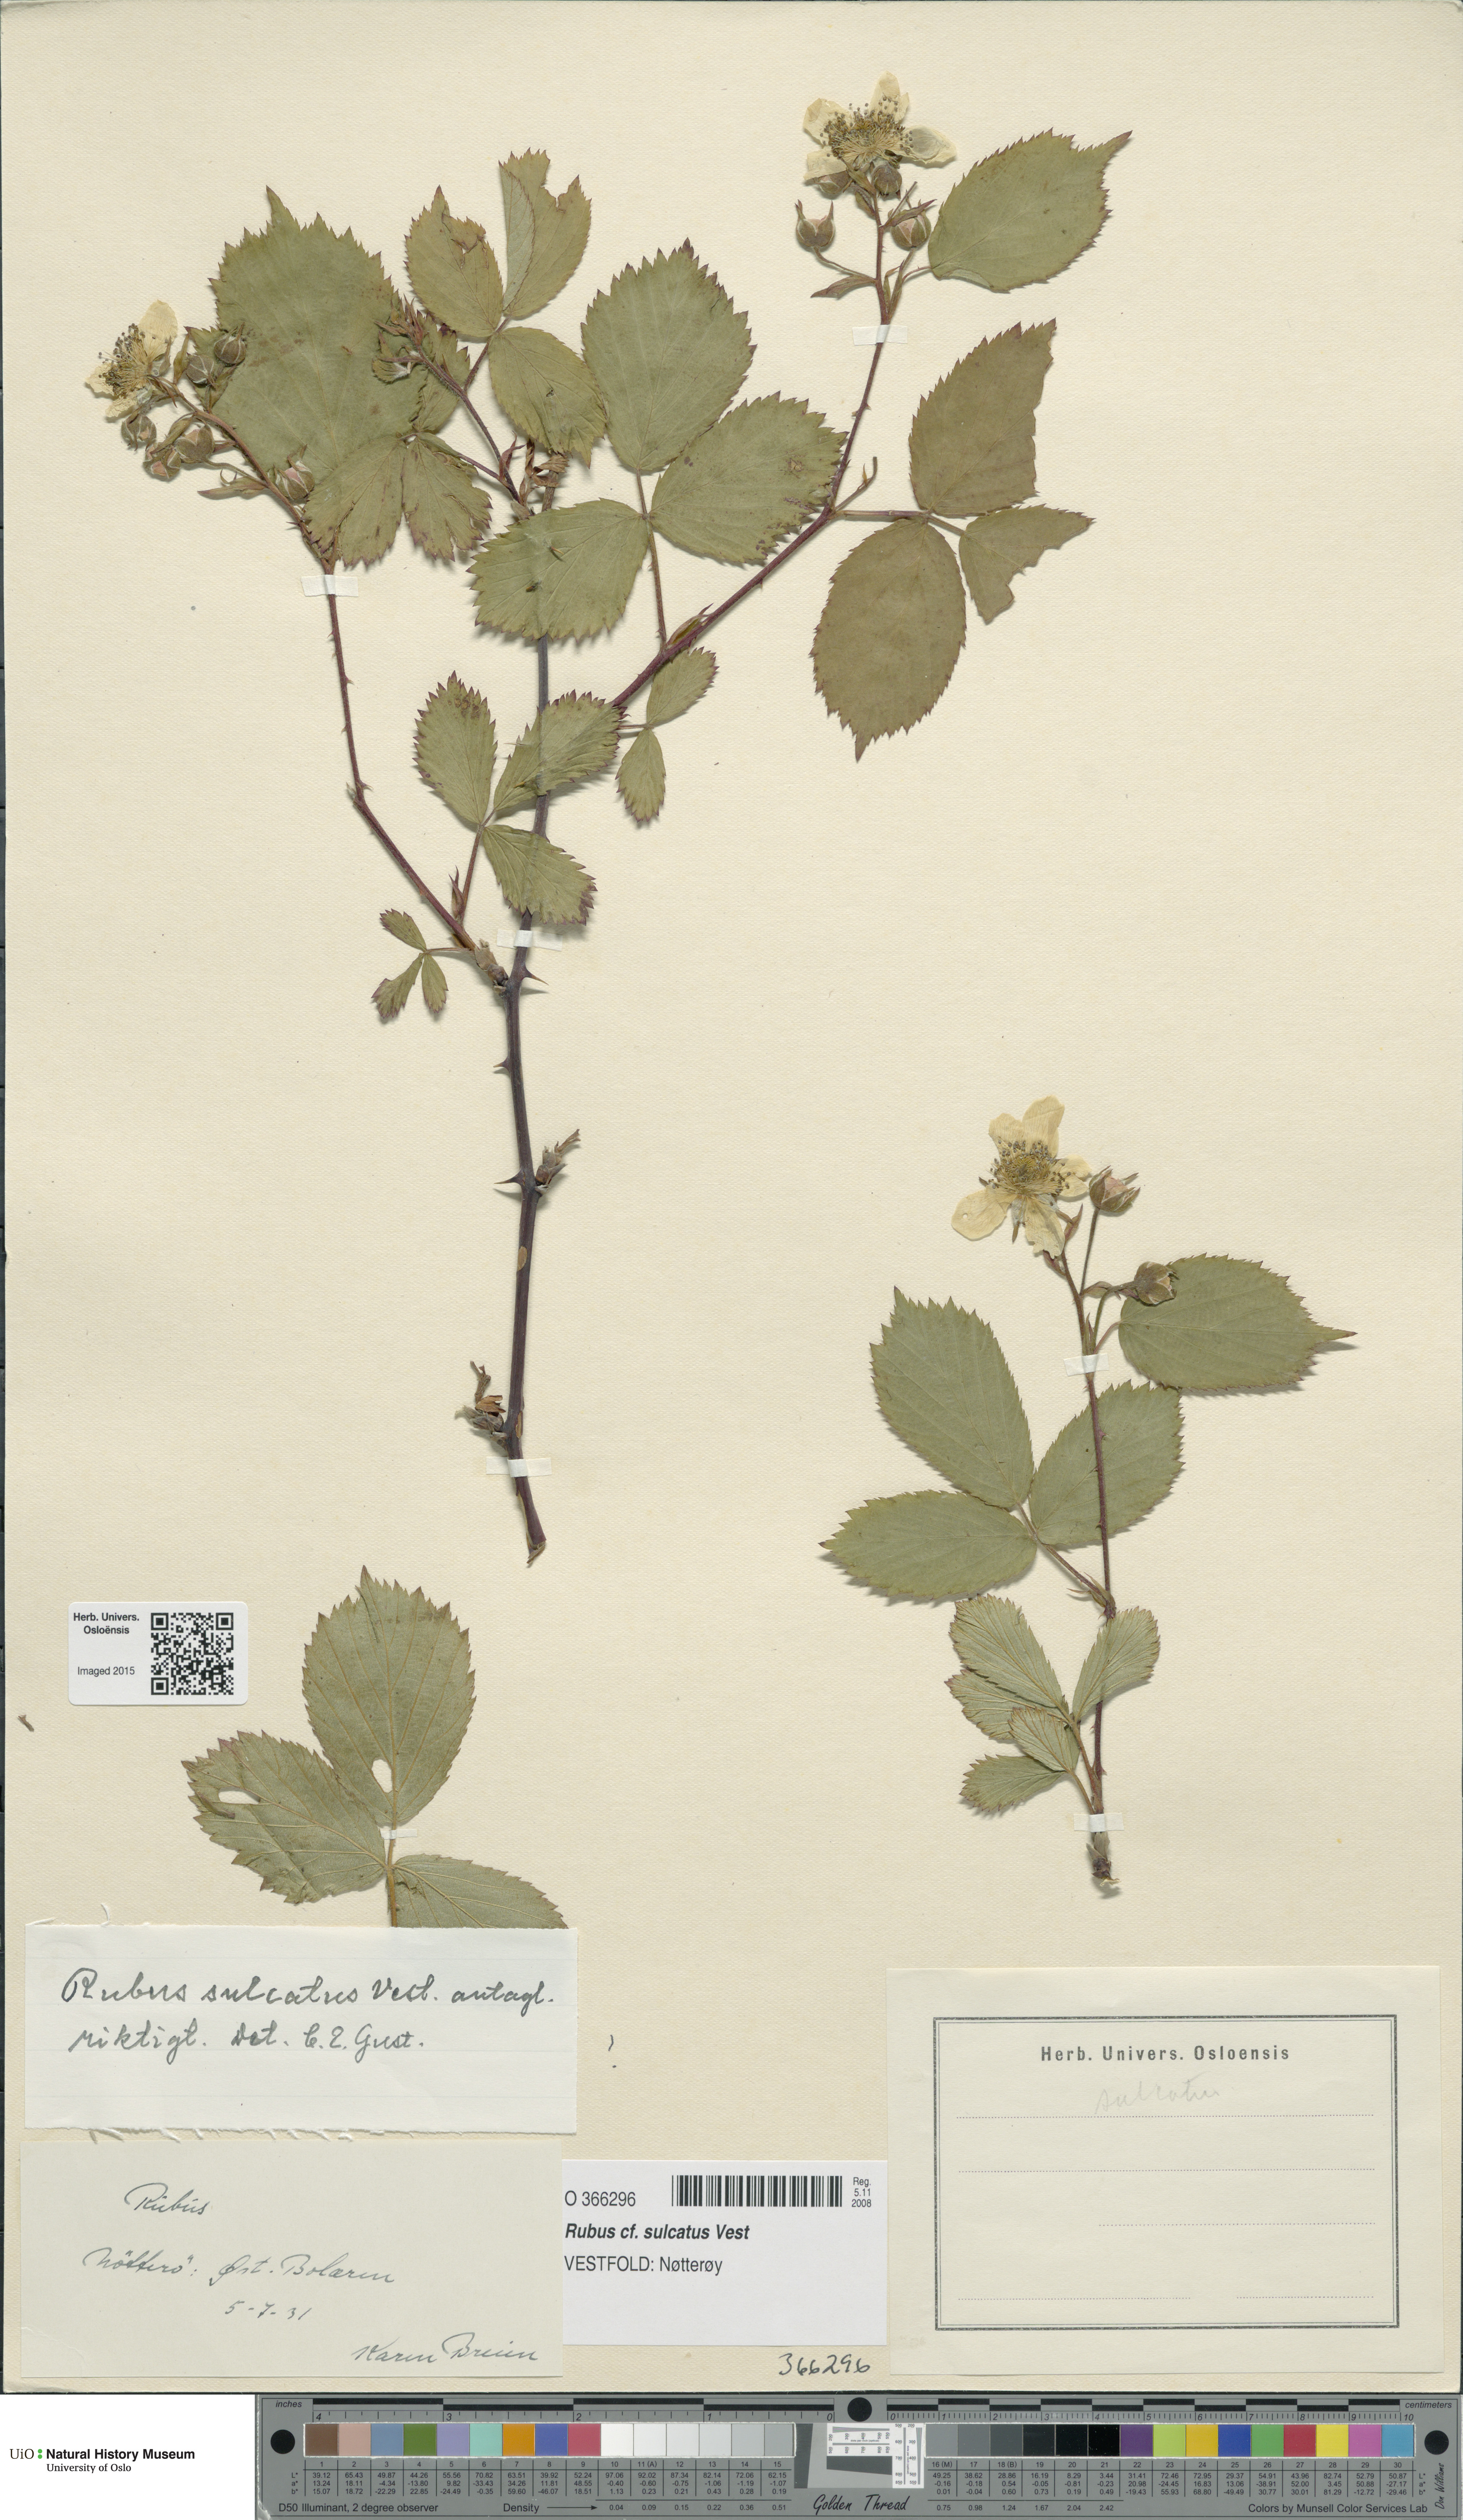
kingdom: Plantae
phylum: Tracheophyta
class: Magnoliopsida
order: Rosales
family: Rosaceae
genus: Rubus
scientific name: Rubus sulcatus
